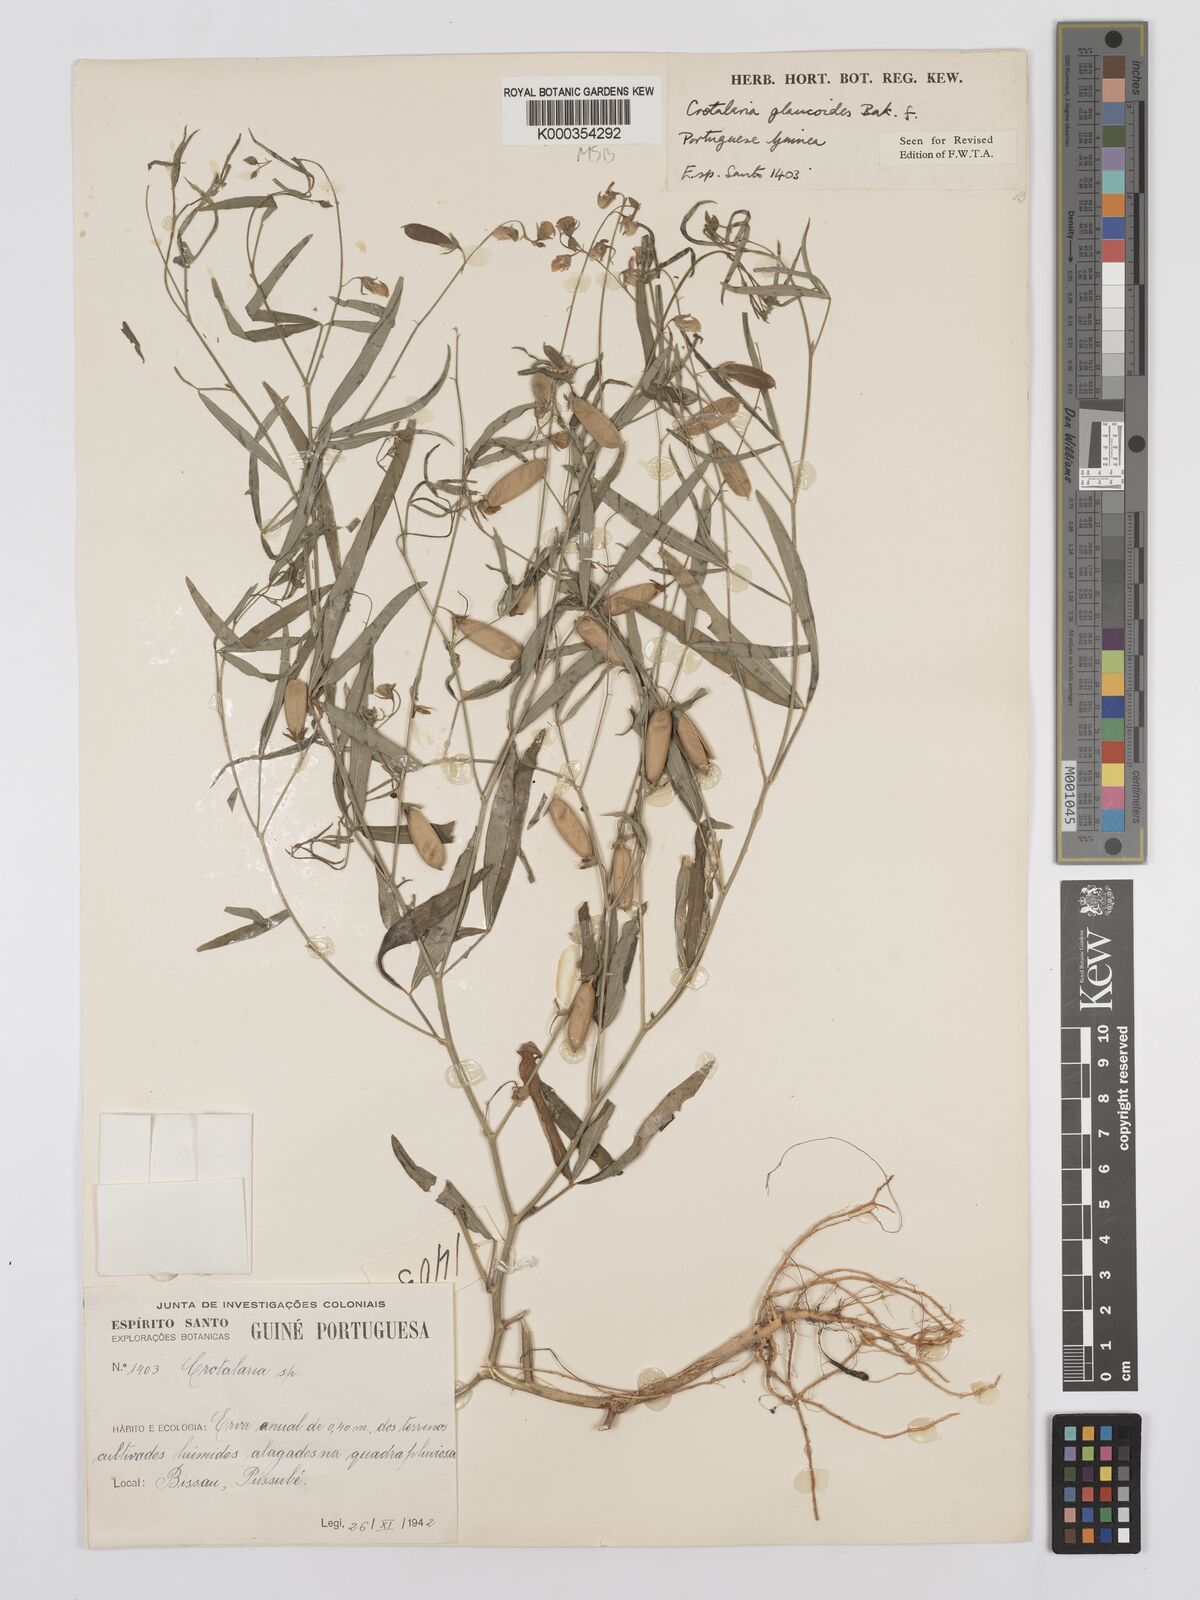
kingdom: Plantae
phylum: Tracheophyta
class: Magnoliopsida
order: Fabales
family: Fabaceae
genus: Crotalaria
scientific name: Crotalaria glaucoides
